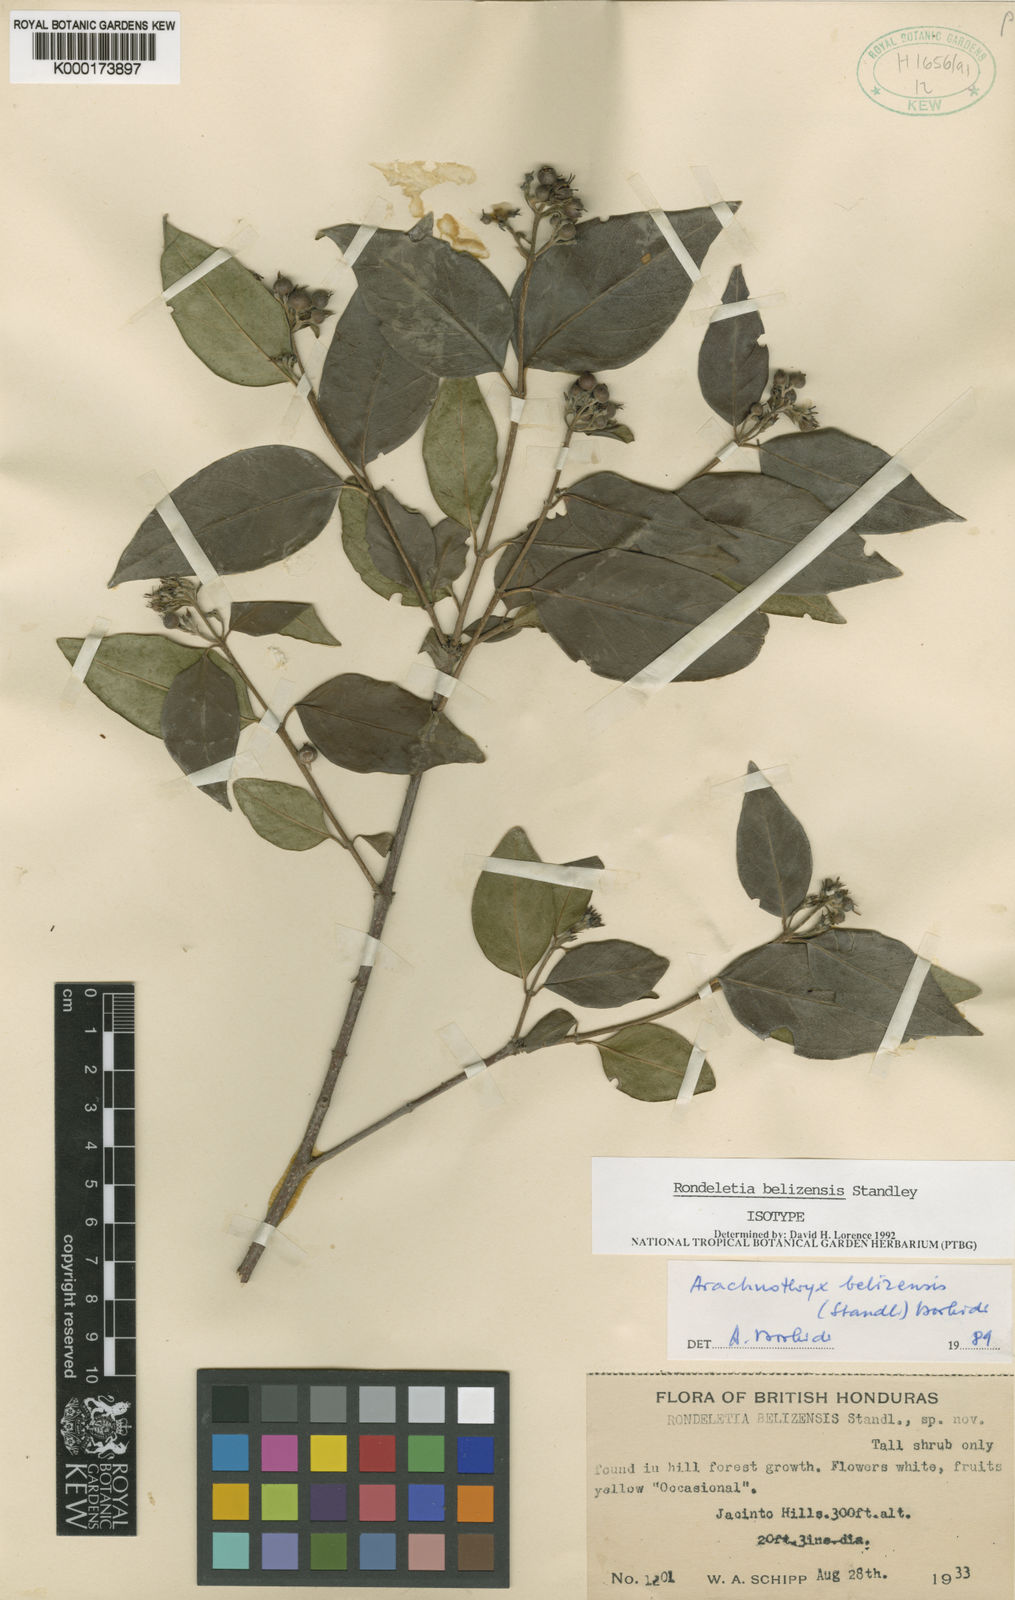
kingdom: Plantae
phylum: Tracheophyta
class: Magnoliopsida
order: Gentianales
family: Rubiaceae
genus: Rondeletia
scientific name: Rondeletia belizensis
